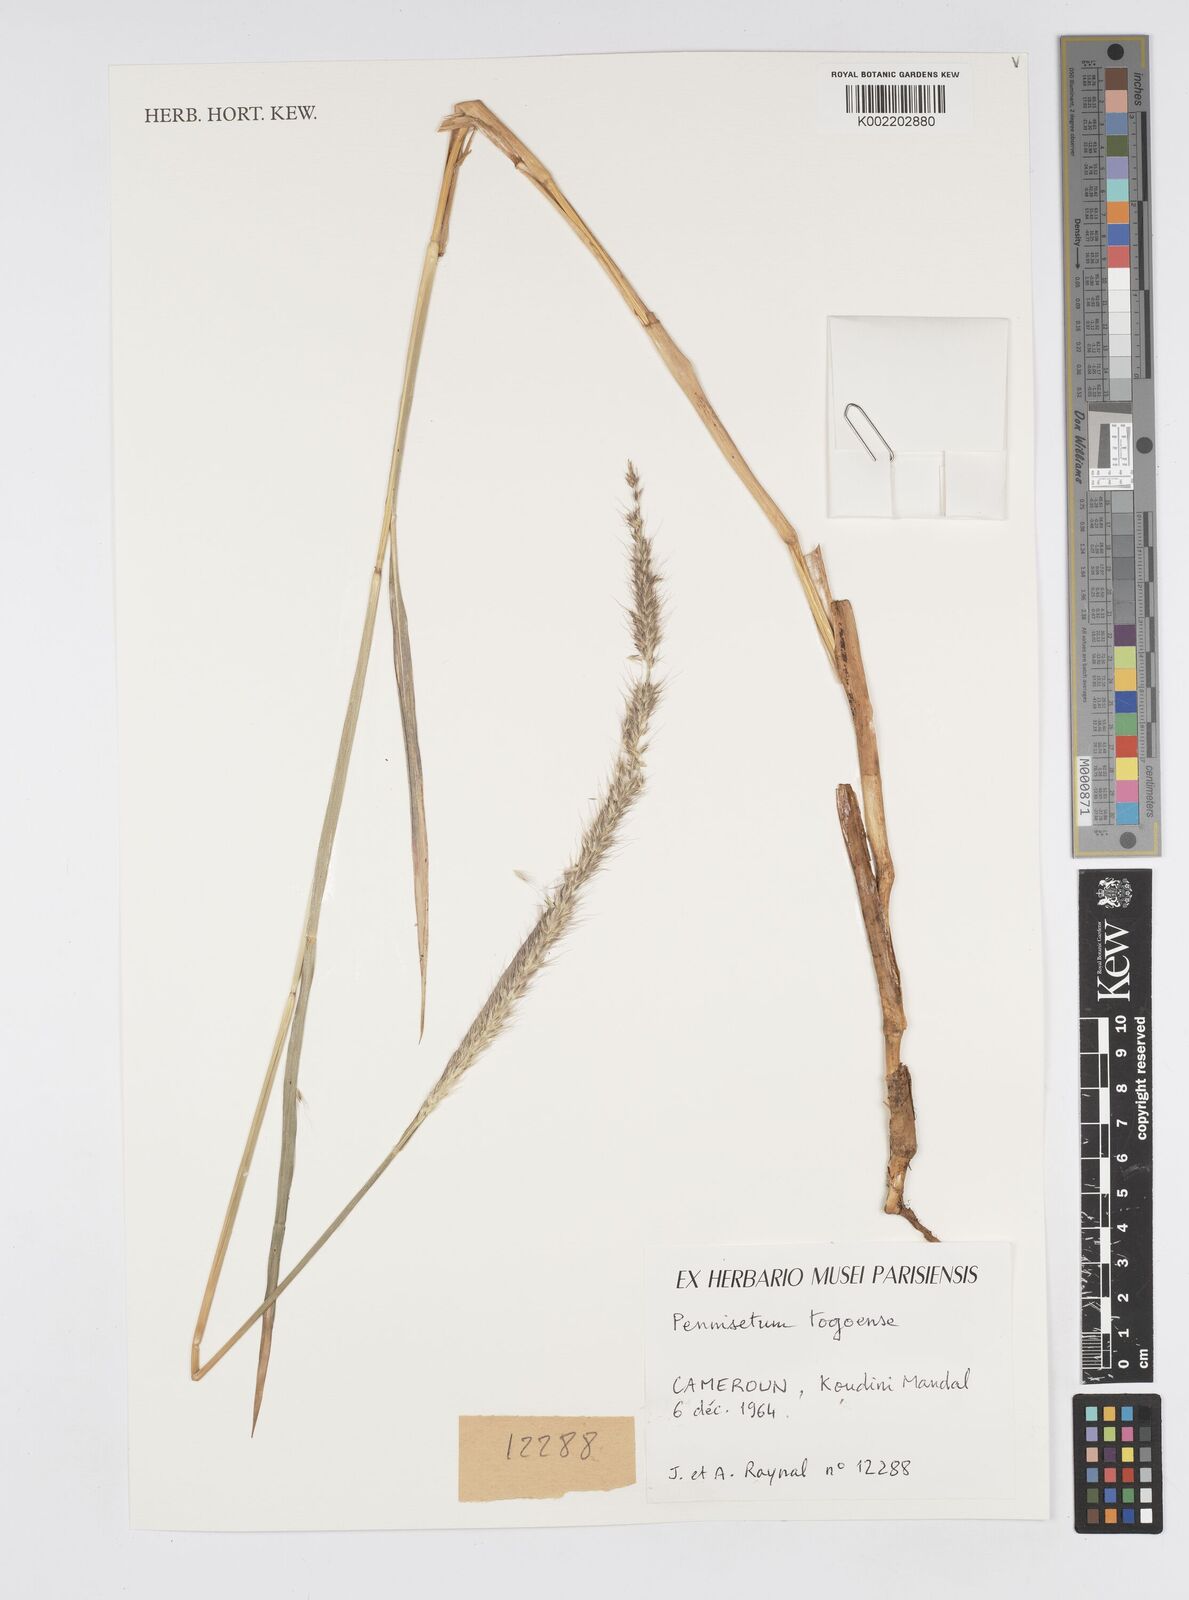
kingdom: Plantae
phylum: Tracheophyta
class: Liliopsida
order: Poales
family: Poaceae
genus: Cenchrus
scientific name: Cenchrus caudatus
